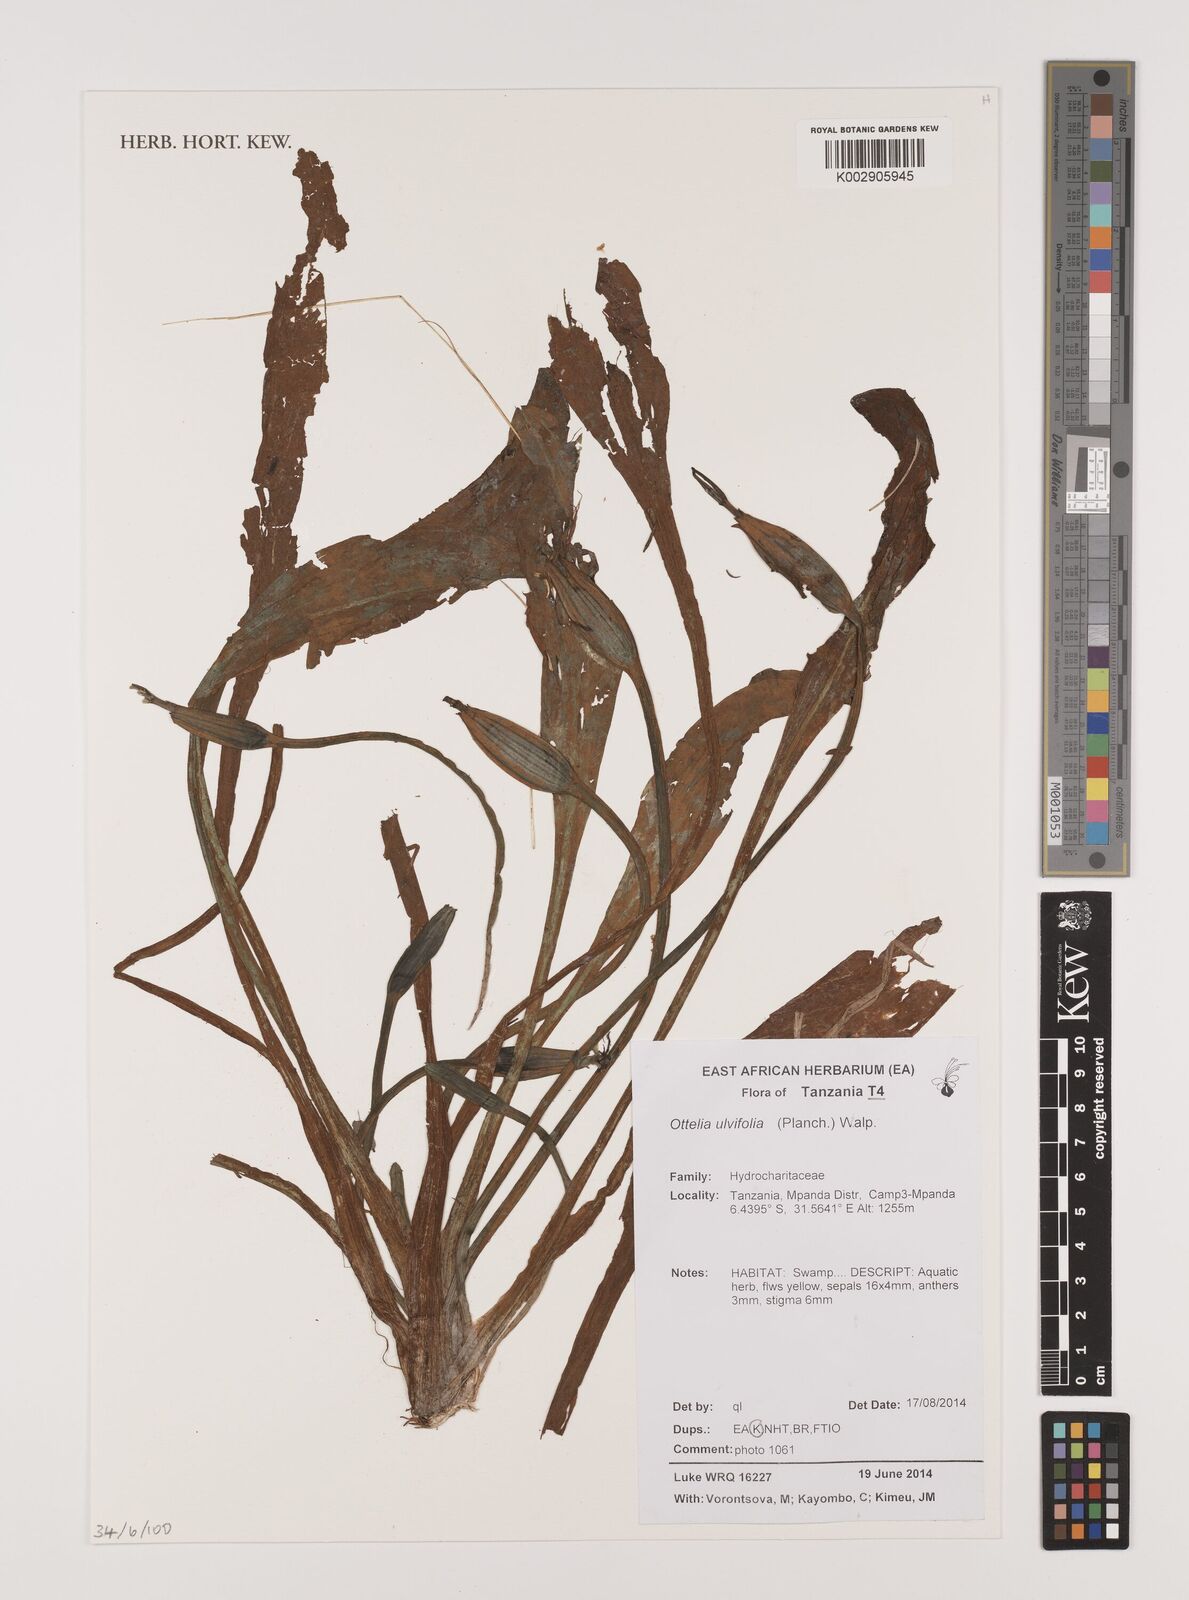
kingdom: Plantae
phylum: Tracheophyta
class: Liliopsida
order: Alismatales
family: Hydrocharitaceae
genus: Ottelia
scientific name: Ottelia ulvifolia
